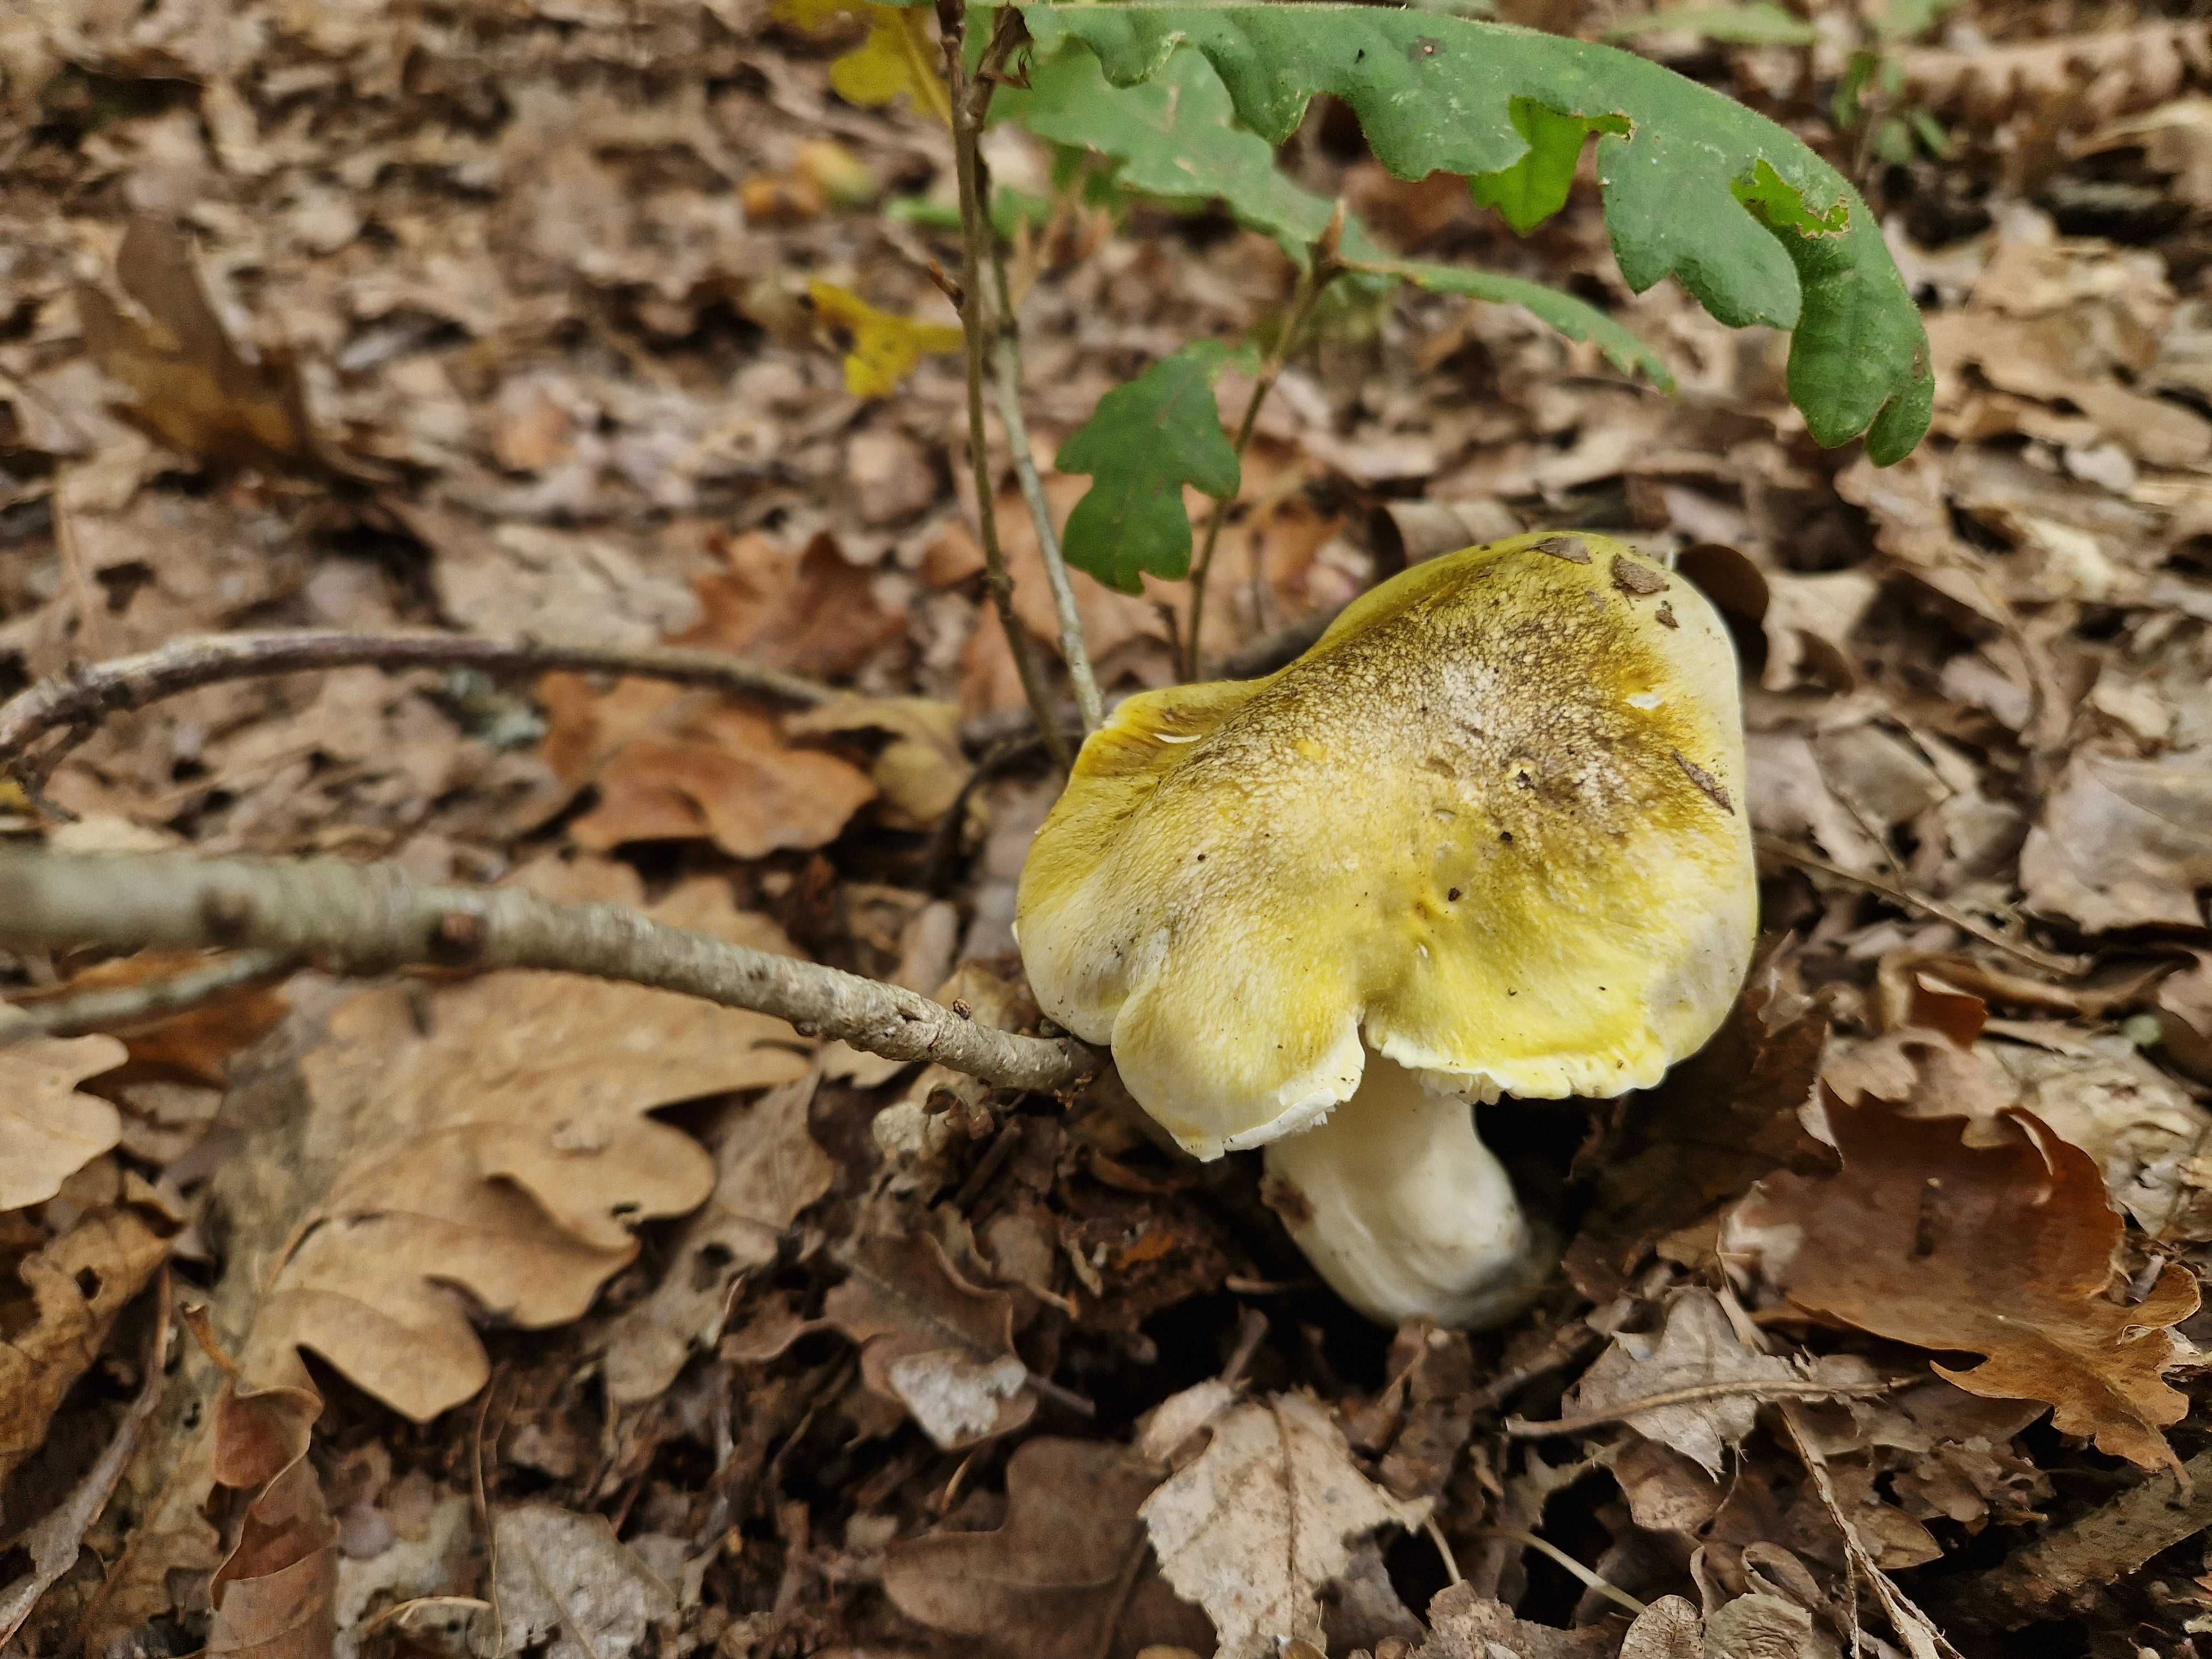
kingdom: Fungi
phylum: Basidiomycota
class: Agaricomycetes
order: Agaricales
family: Tricholomataceae
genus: Tricholoma
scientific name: Tricholoma sejunctum
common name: grøngul ridderhat
